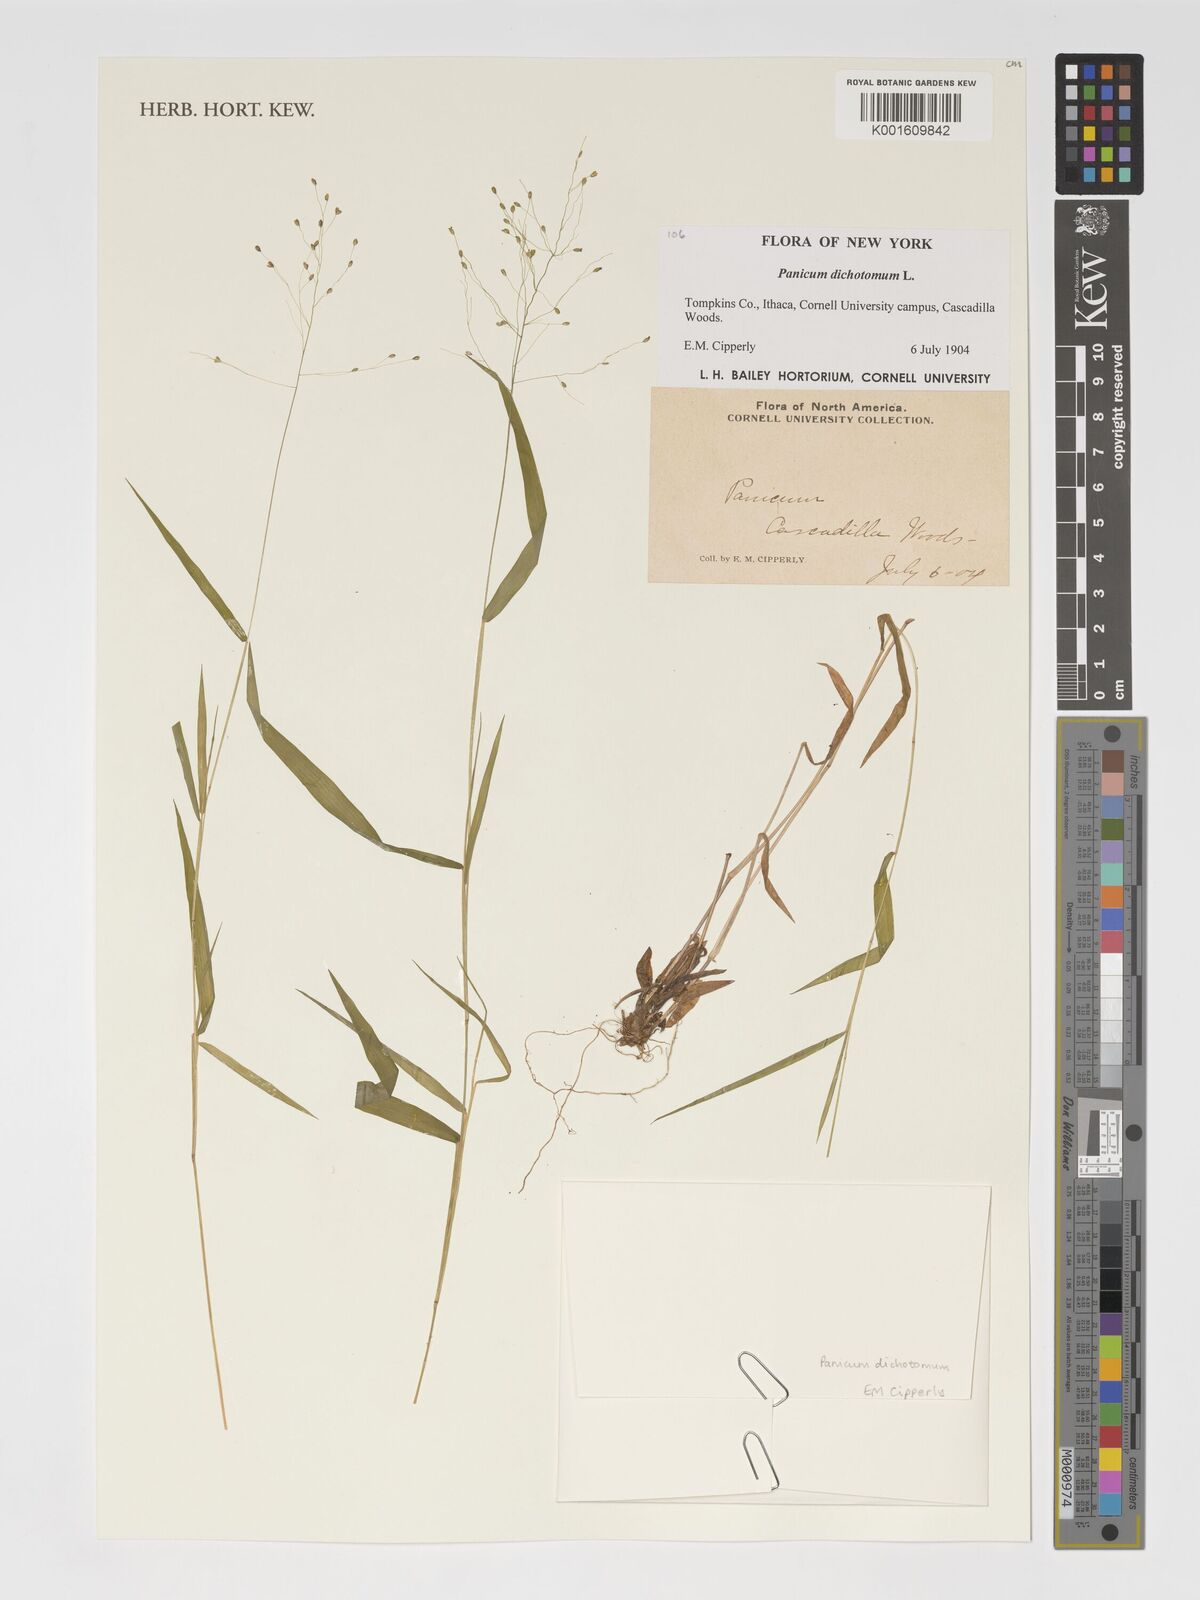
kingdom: Plantae
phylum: Tracheophyta
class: Liliopsida
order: Poales
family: Poaceae
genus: Dichanthelium
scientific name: Dichanthelium dichotomum
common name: Cypress panicgrass
